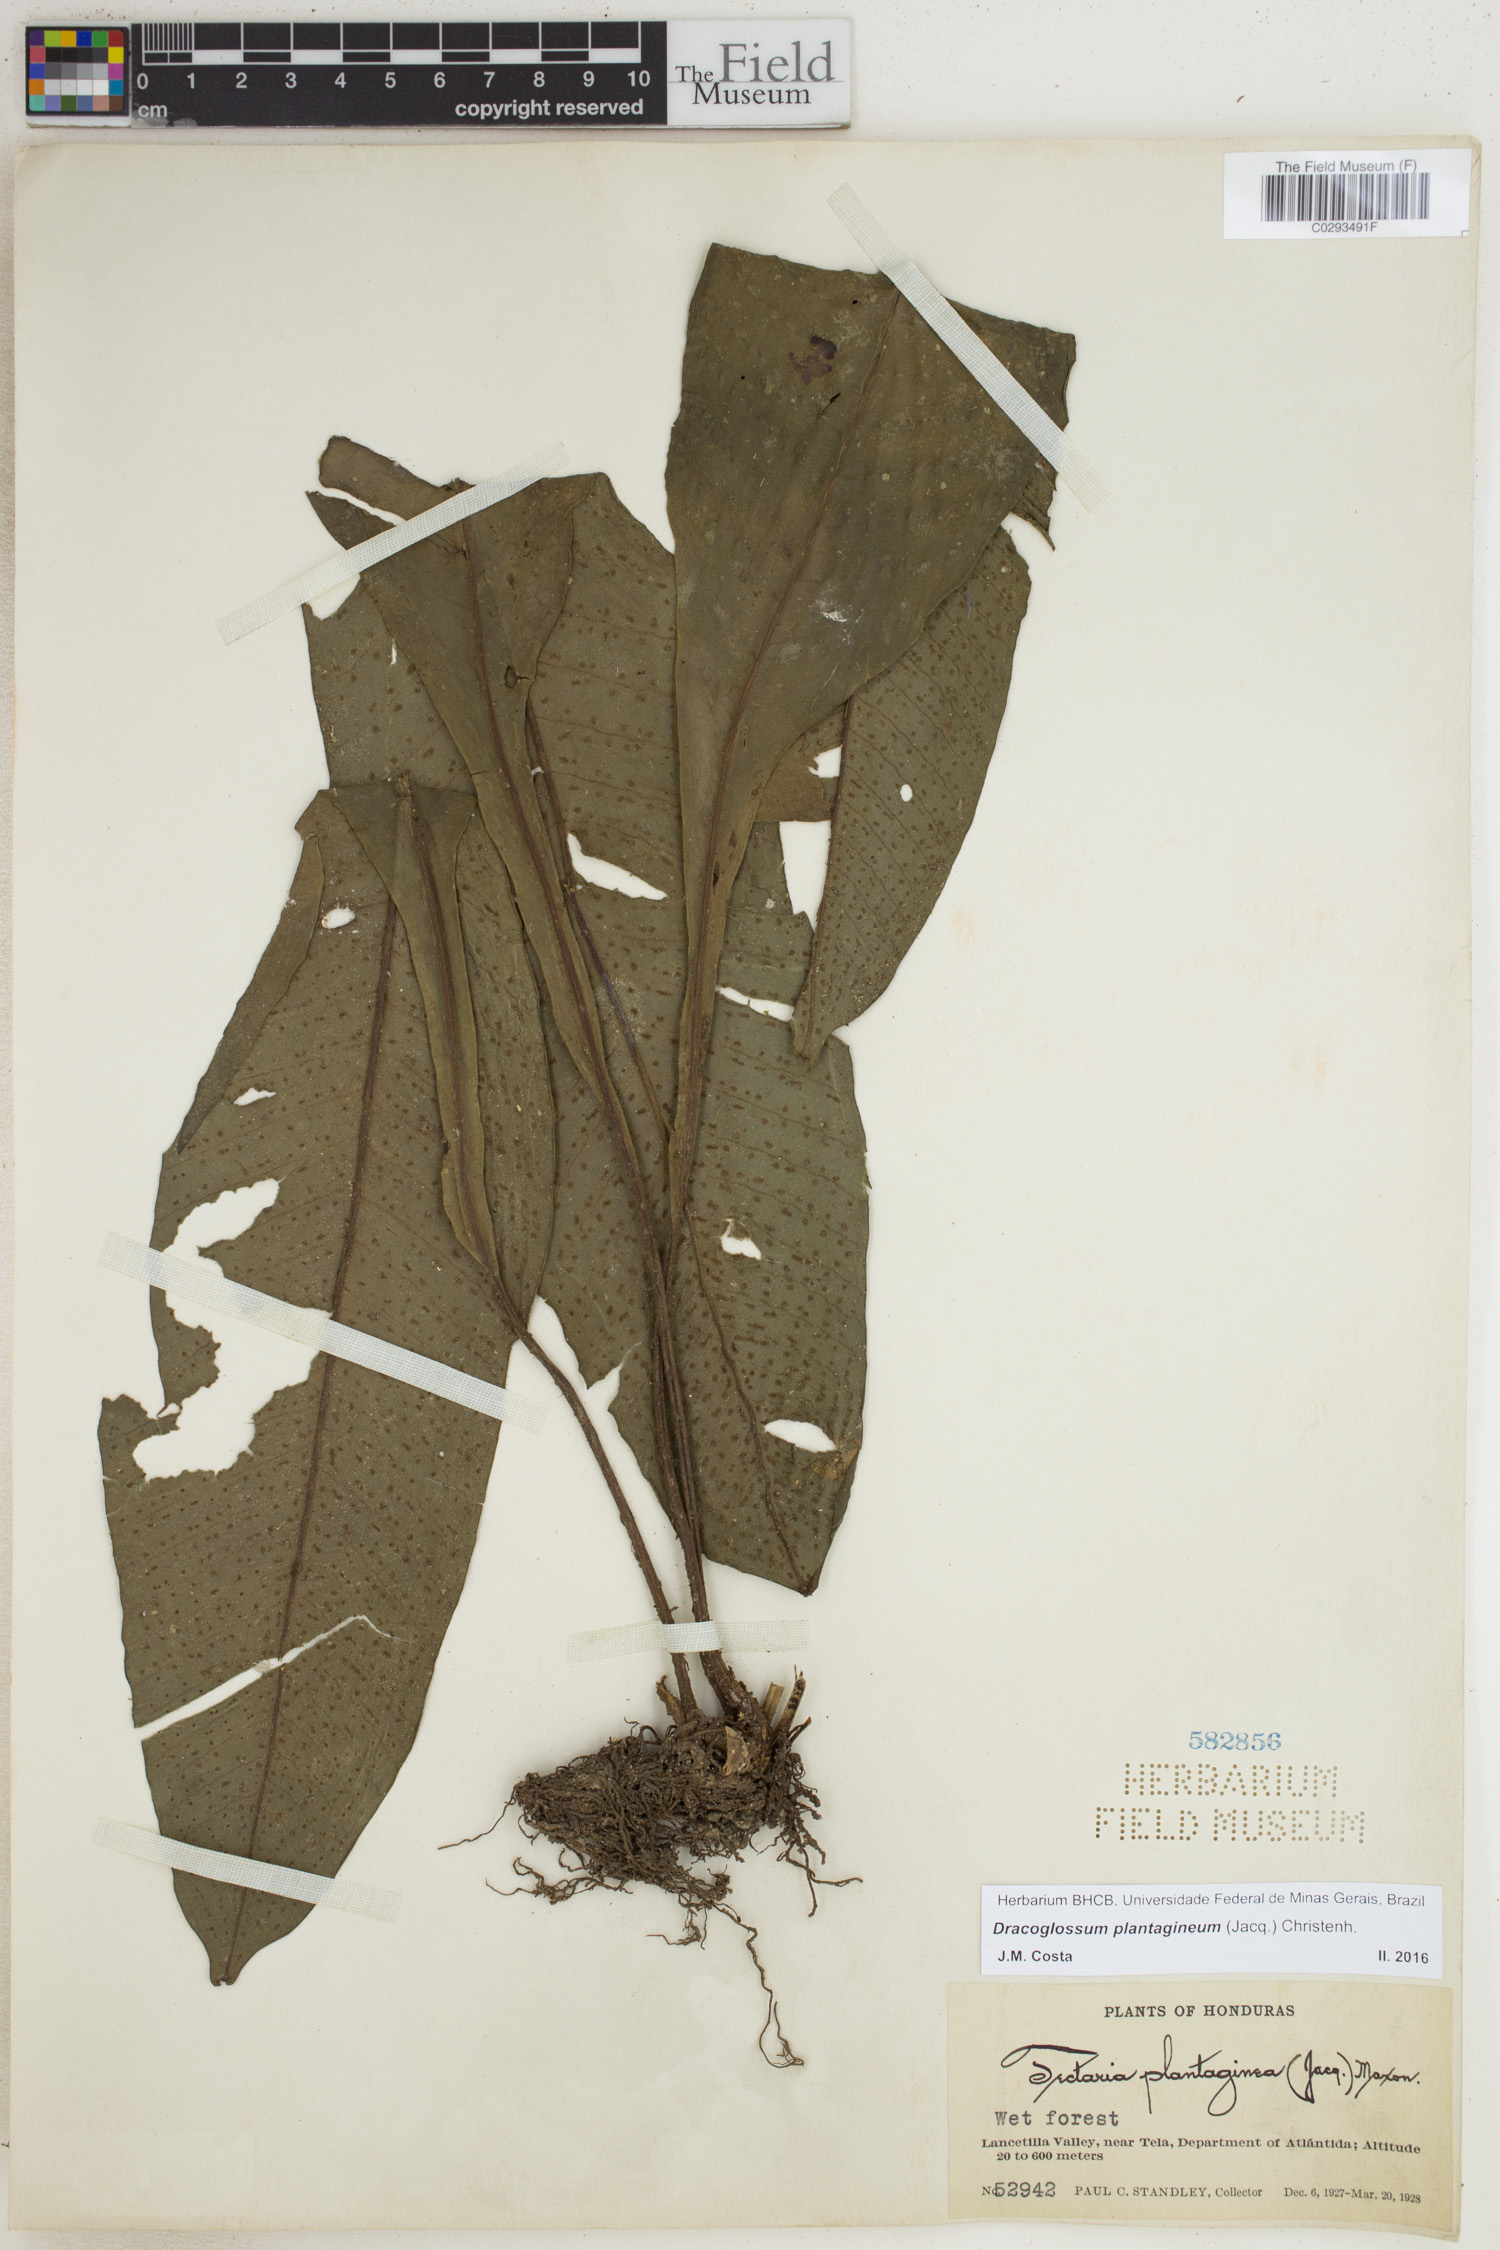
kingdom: Plantae
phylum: Tracheophyta
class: Polypodiopsida
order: Polypodiales
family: Lomariopsidaceae
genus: Dracoglossum
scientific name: Dracoglossum plantagineum
